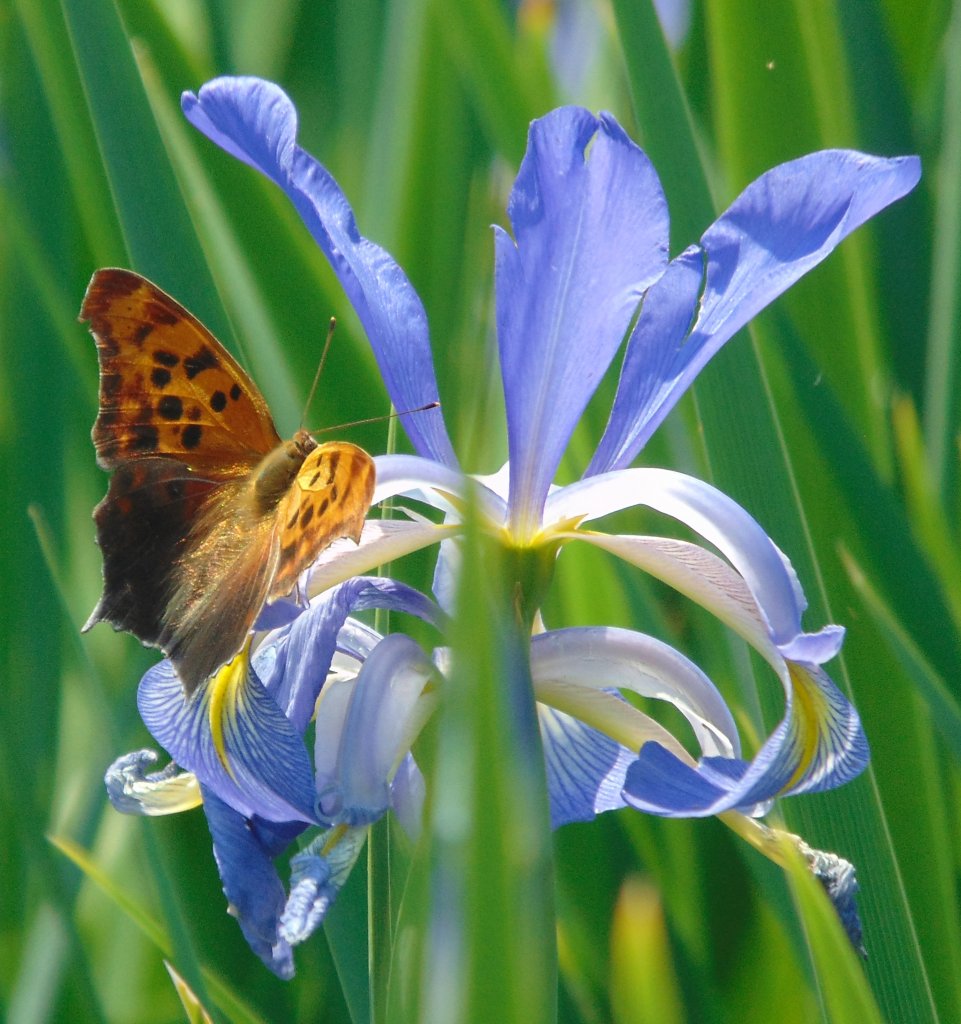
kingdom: Animalia
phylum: Arthropoda
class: Insecta
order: Lepidoptera
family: Nymphalidae
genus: Polygonia
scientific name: Polygonia interrogationis
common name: Question Mark
